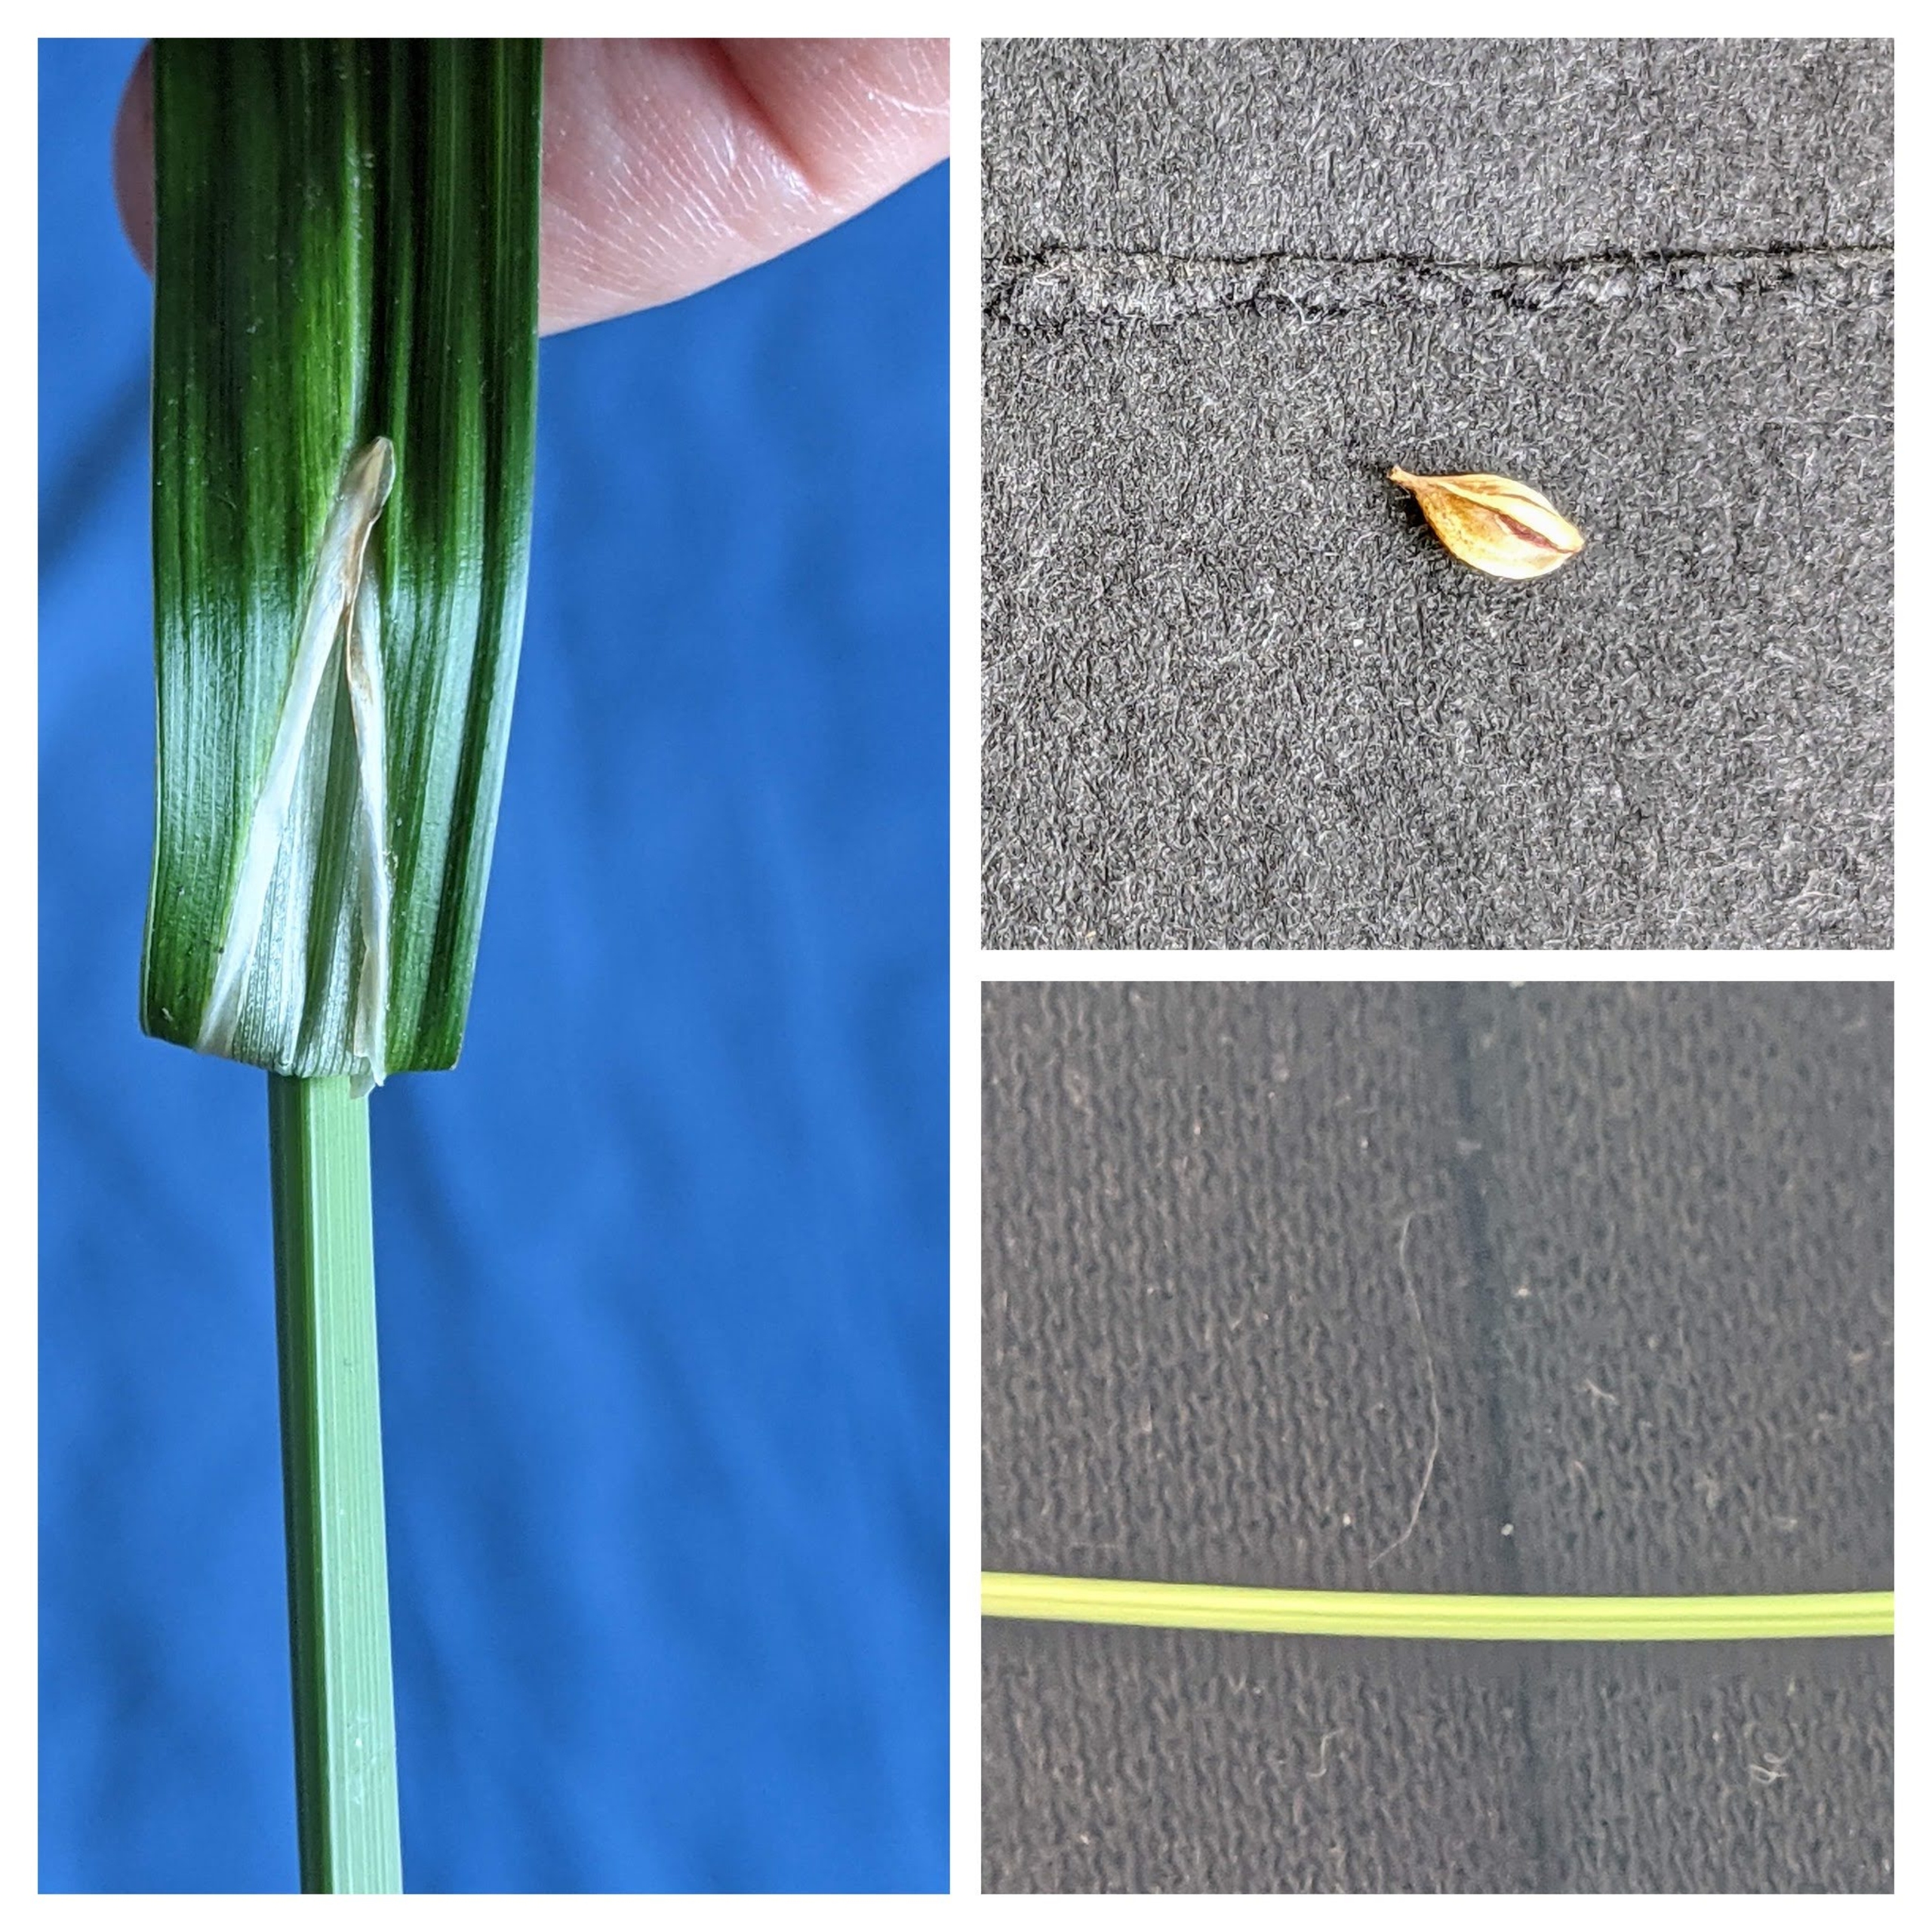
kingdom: Plantae
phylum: Tracheophyta
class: Liliopsida
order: Poales
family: Cyperaceae
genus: Carex
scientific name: Carex pendula
